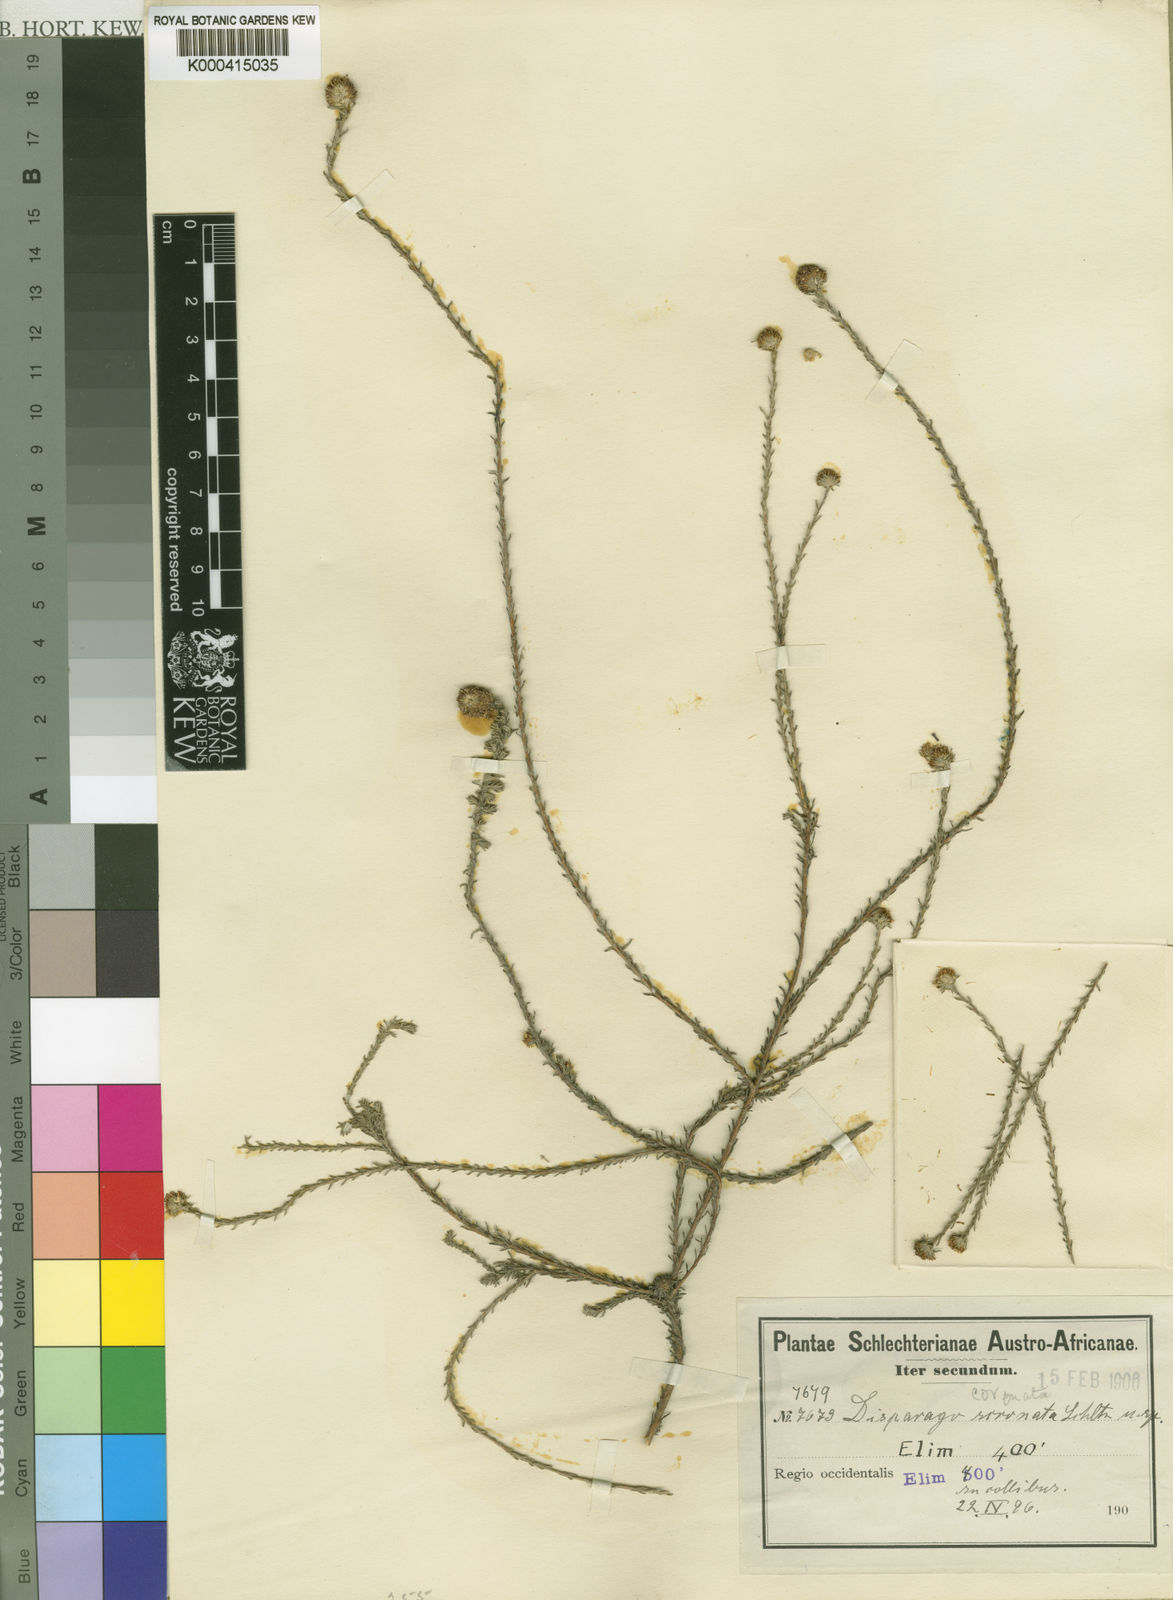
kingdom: Plantae
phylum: Tracheophyta
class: Magnoliopsida
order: Asterales
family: Asteraceae
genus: Stoebe
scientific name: Stoebe
